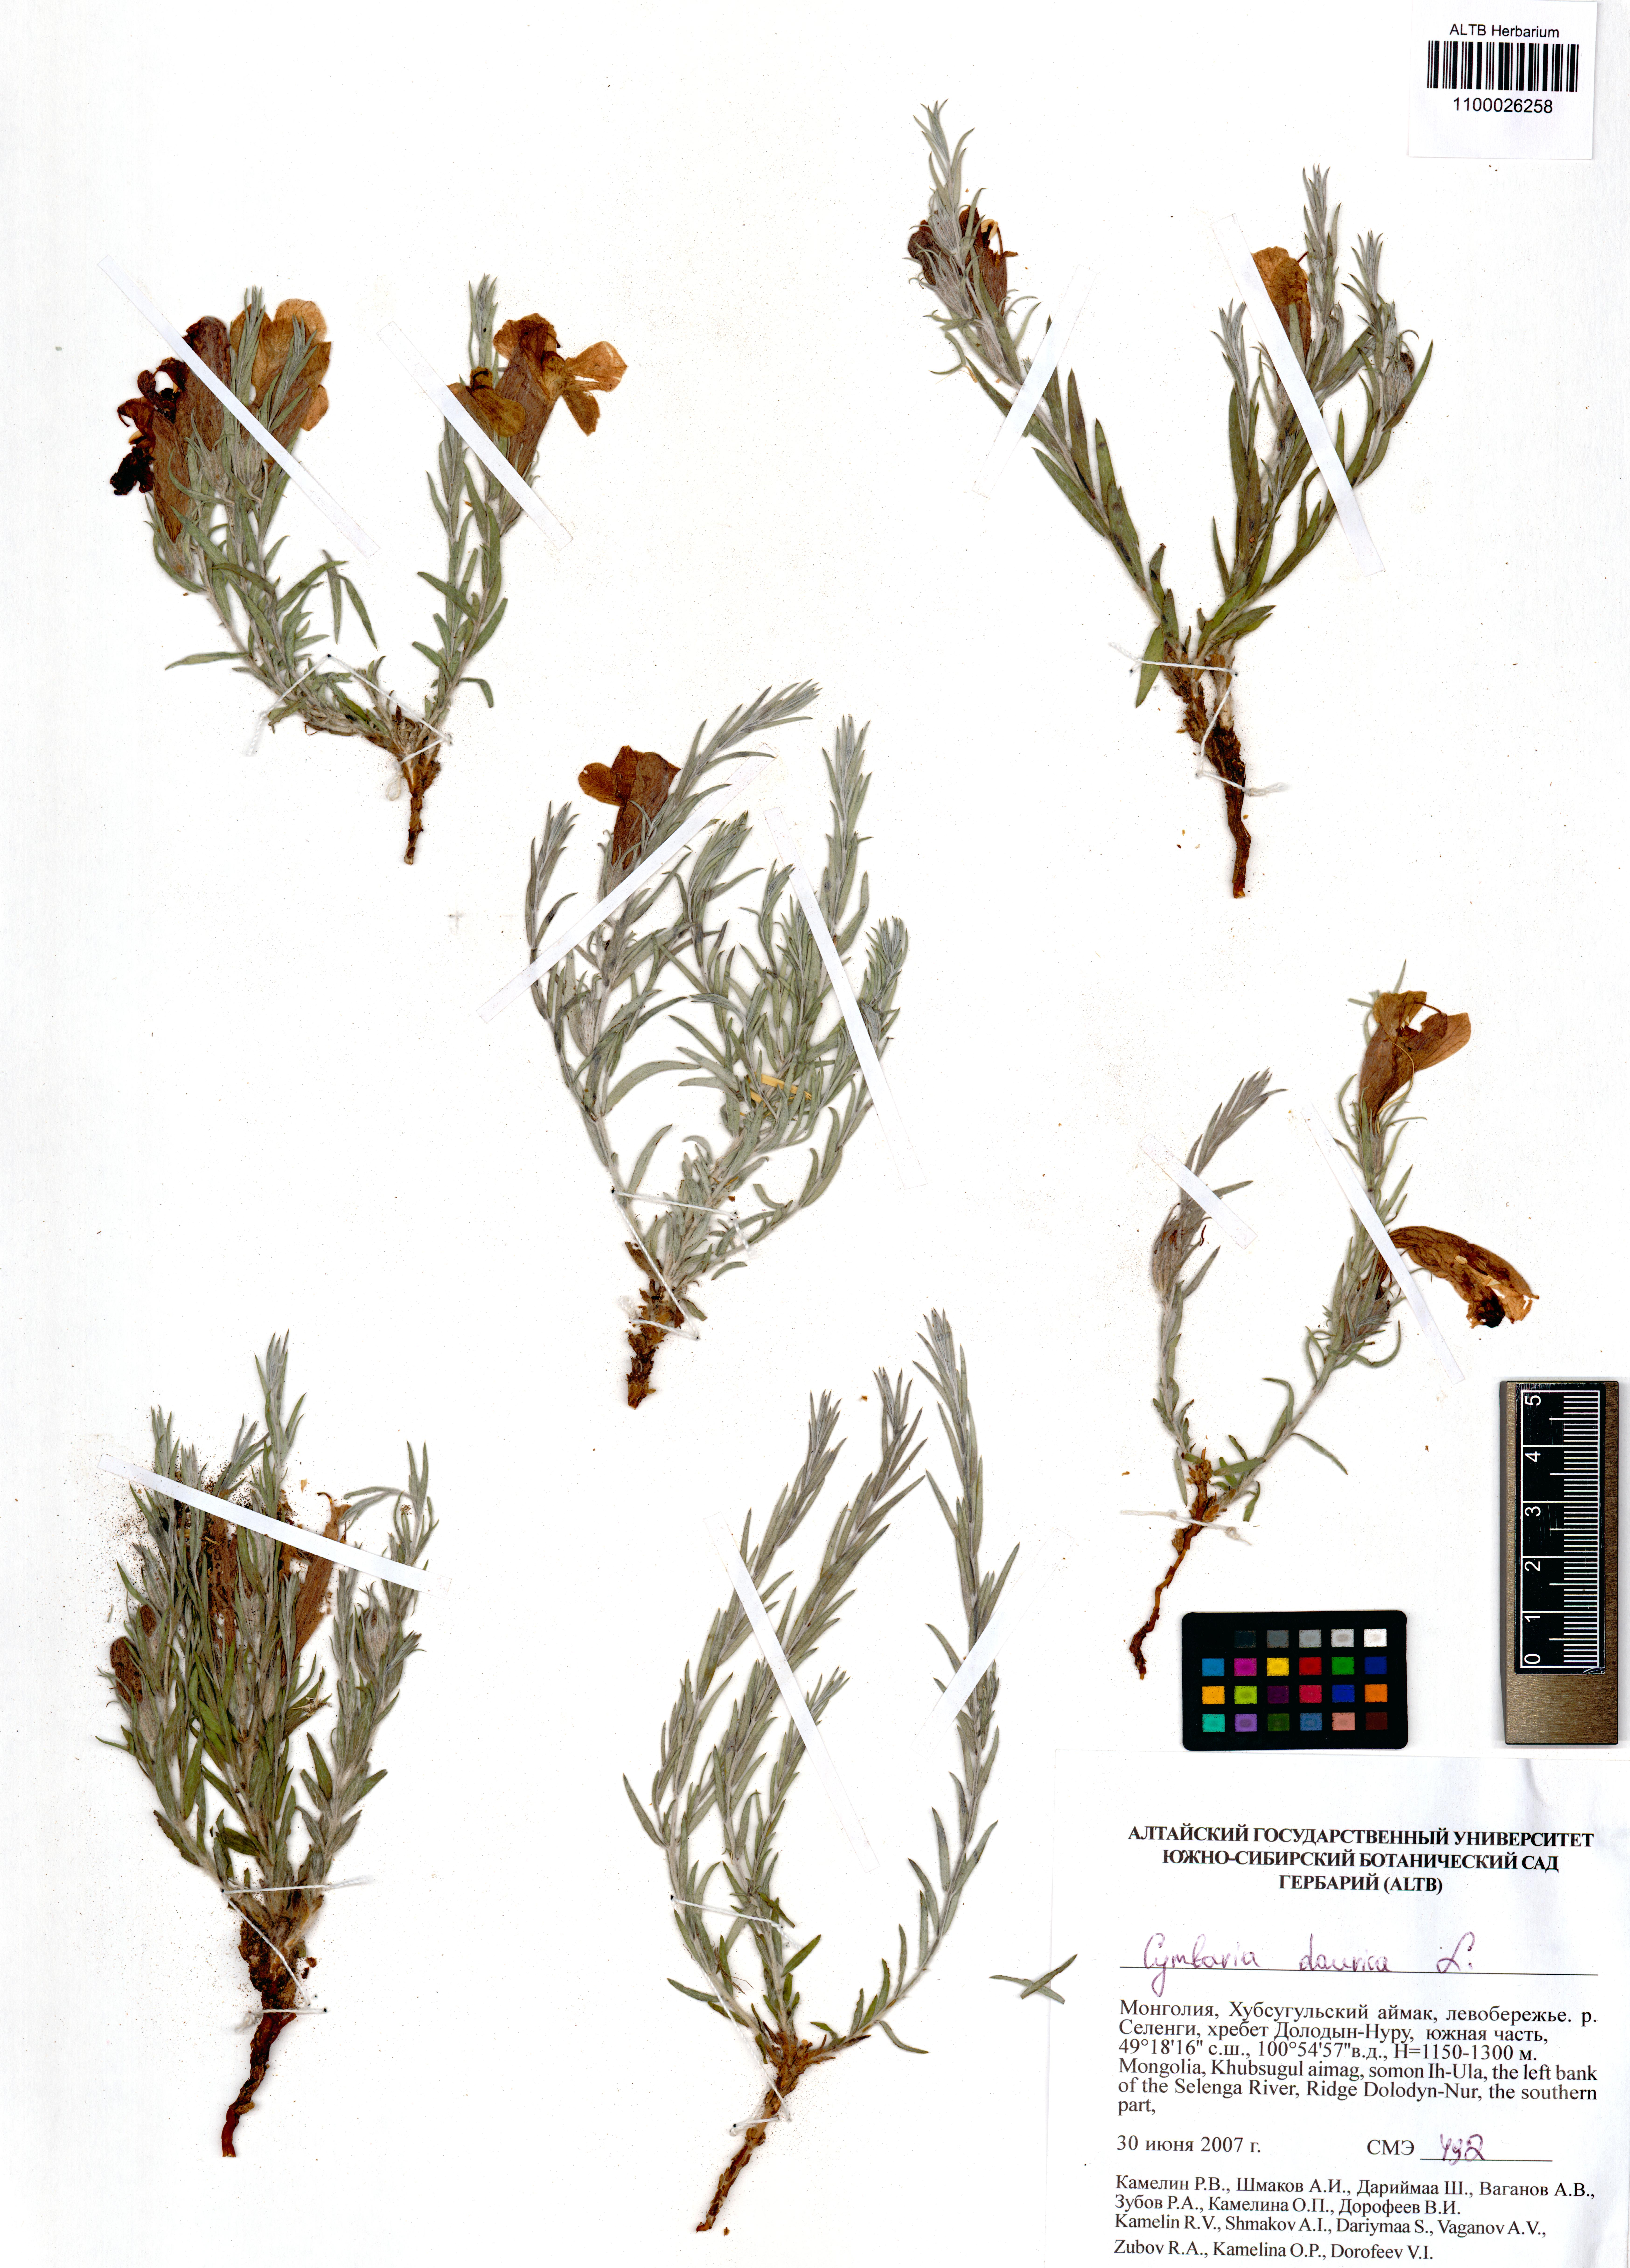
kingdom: Plantae
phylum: Tracheophyta
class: Magnoliopsida
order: Lamiales
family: Orobanchaceae
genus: Cymbaria
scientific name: Cymbaria daurica
